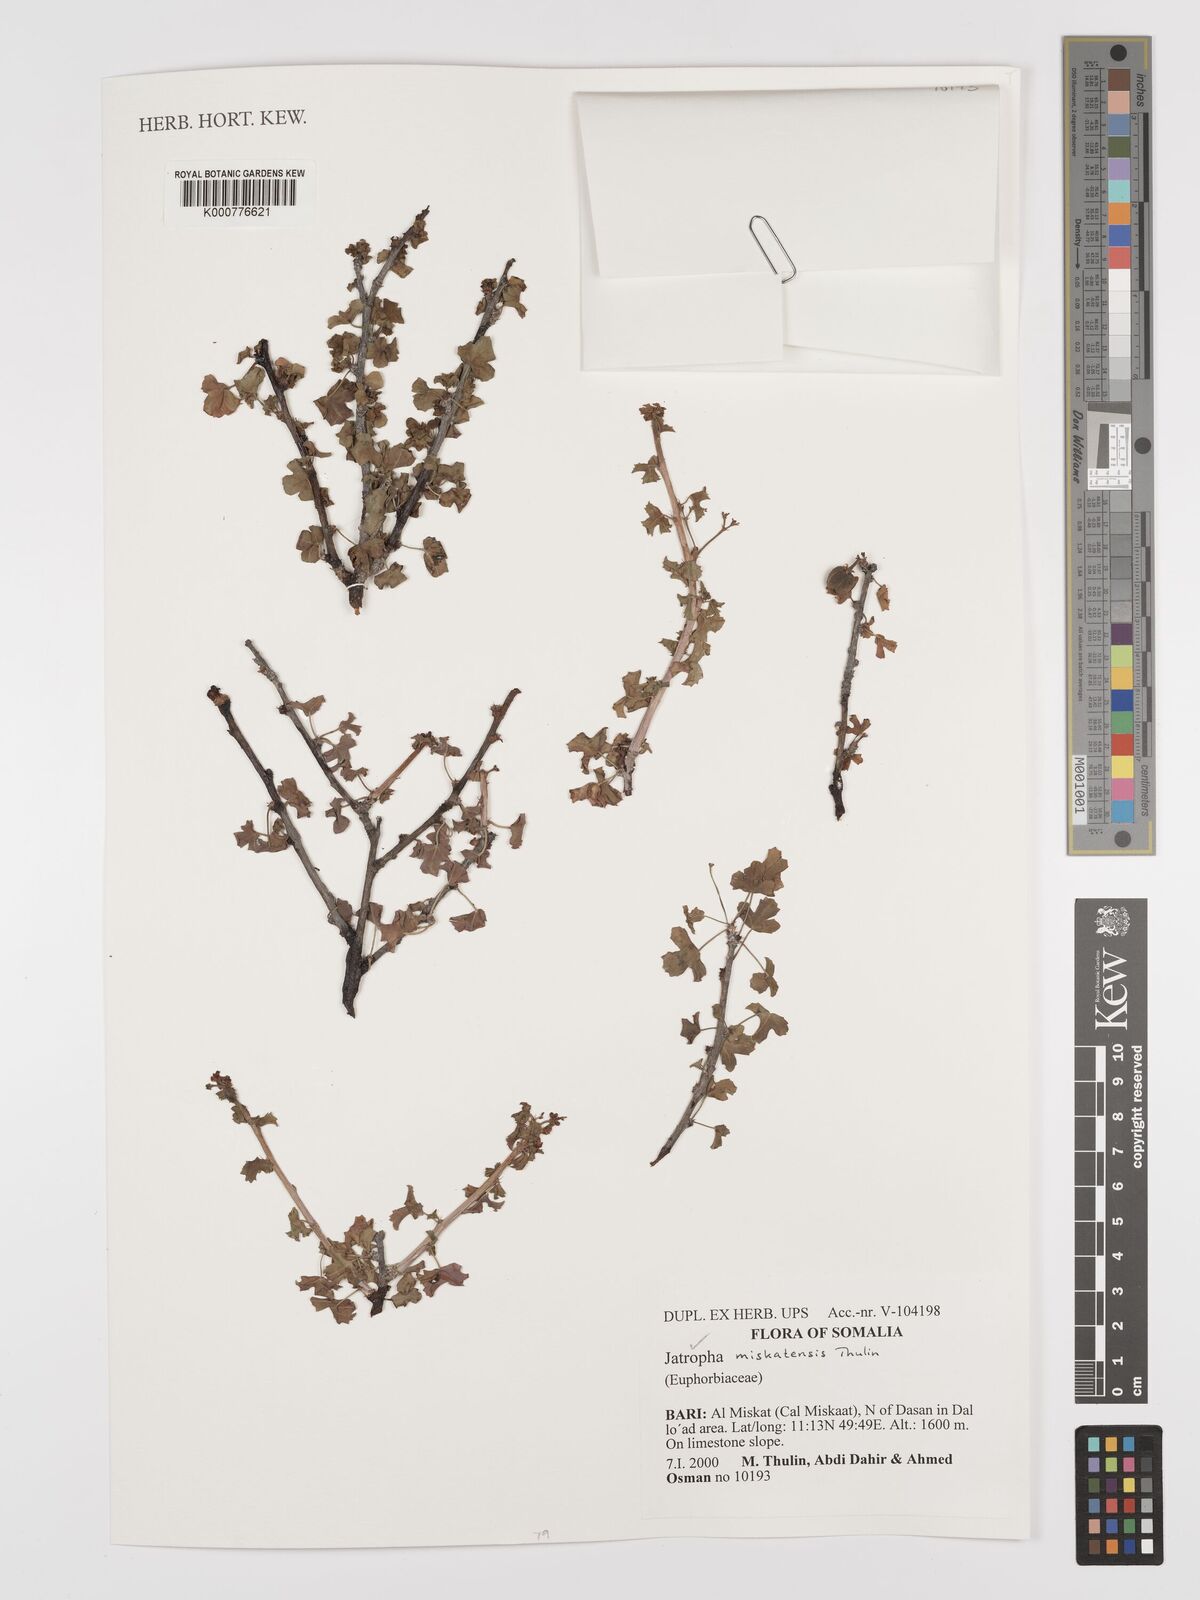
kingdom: Plantae
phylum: Tracheophyta
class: Magnoliopsida
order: Malpighiales
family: Euphorbiaceae
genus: Jatropha
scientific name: Jatropha miskatensis
